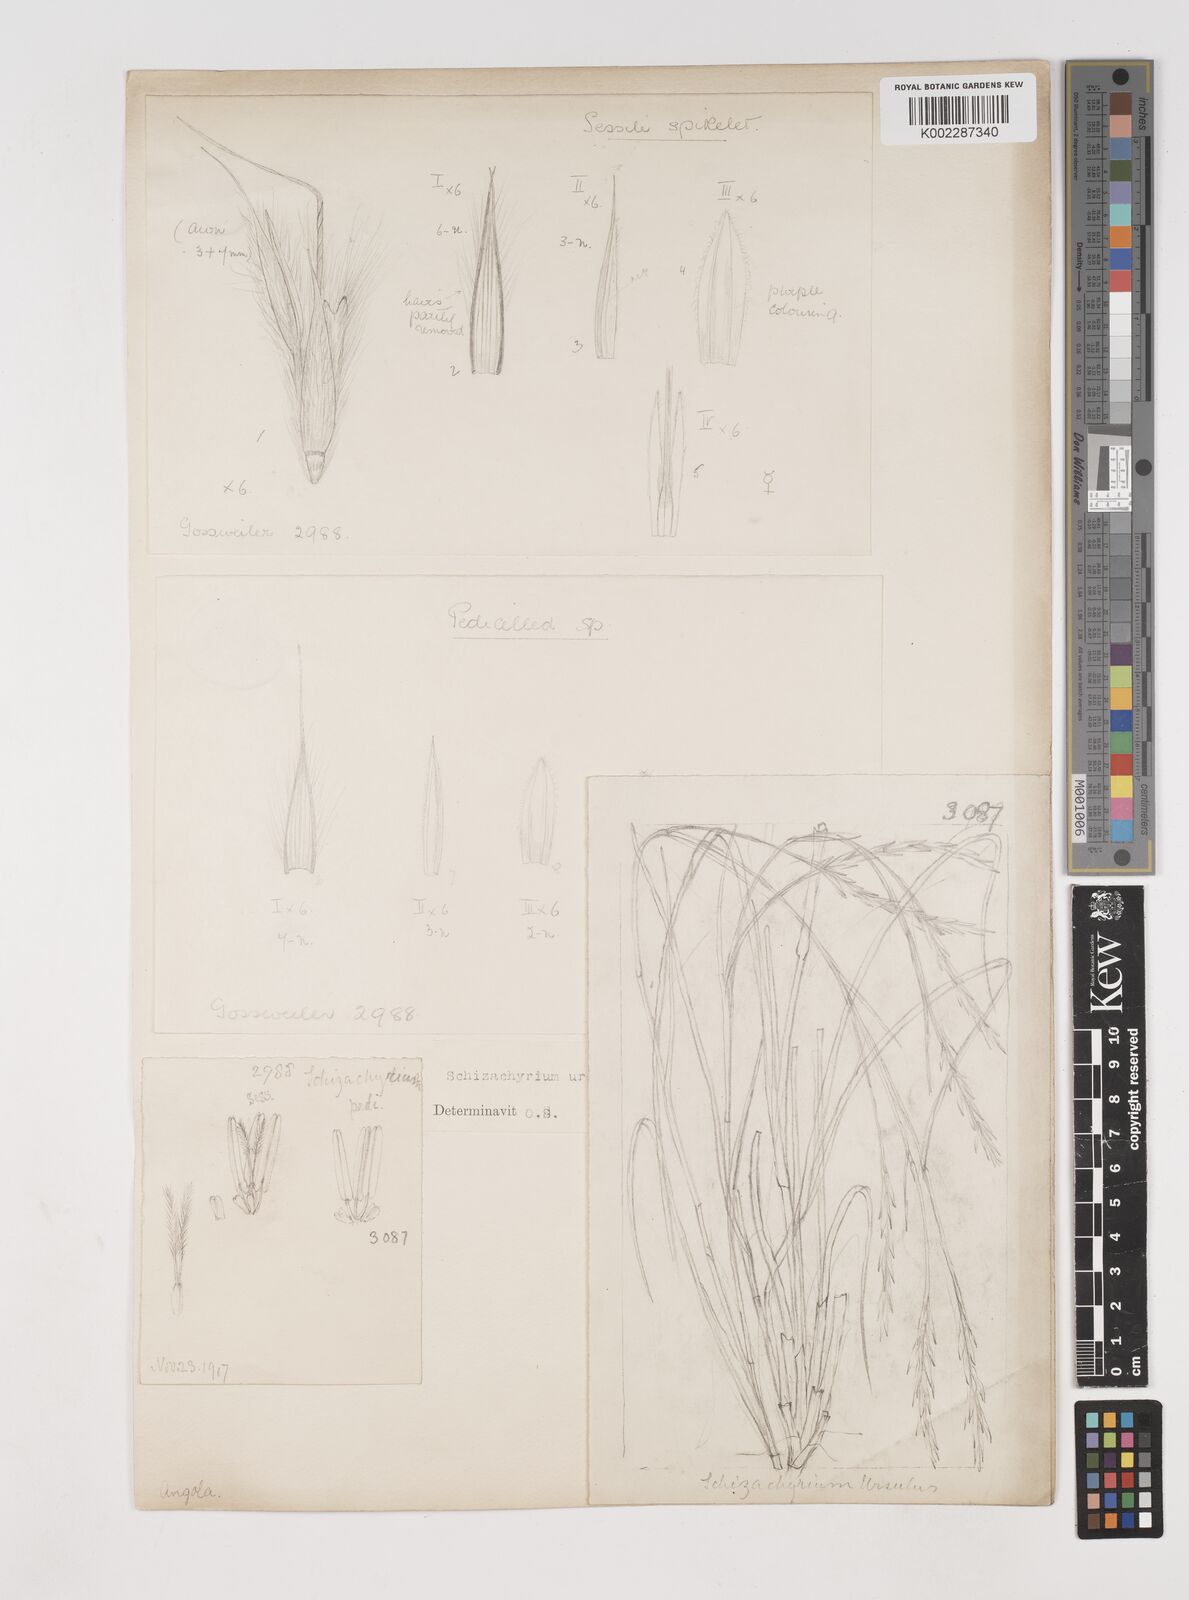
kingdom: Plantae
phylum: Tracheophyta
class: Liliopsida
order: Poales
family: Poaceae
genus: Andropogon
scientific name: Andropogon schweinfurthii
